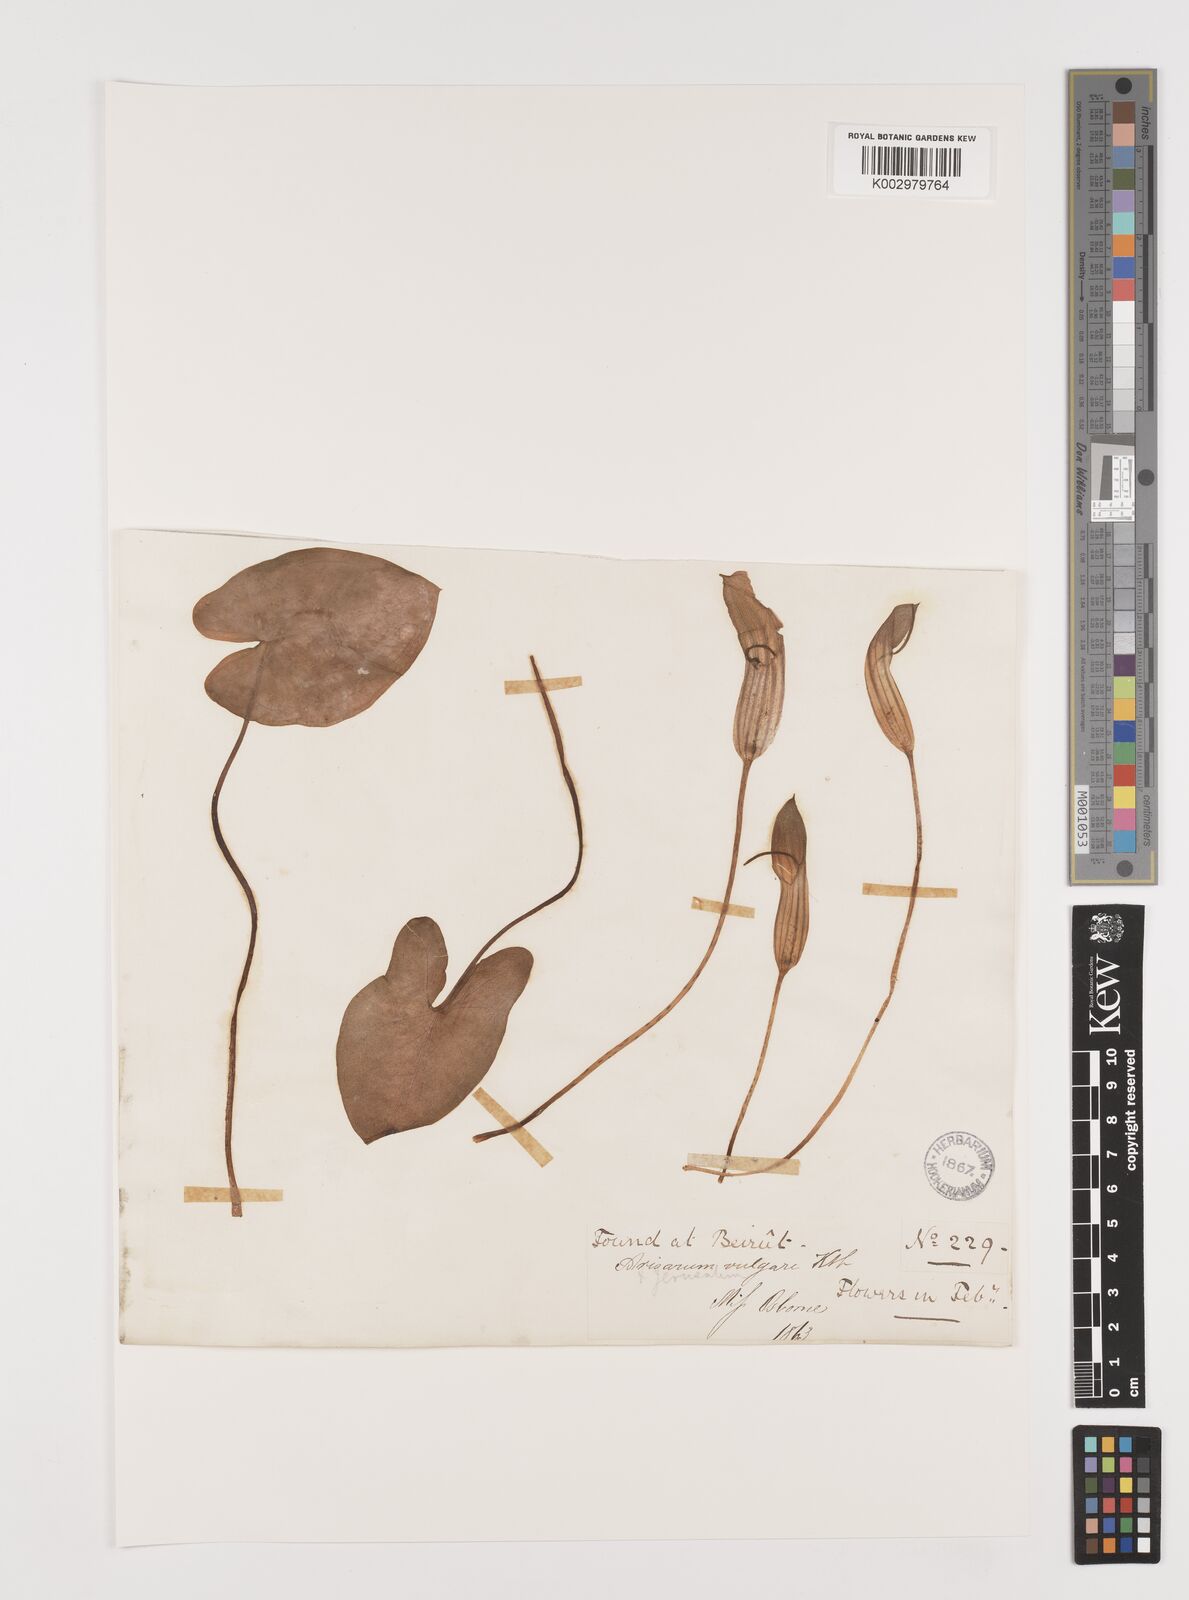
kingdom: Plantae
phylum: Tracheophyta
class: Liliopsida
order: Alismatales
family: Araceae
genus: Arisarum
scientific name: Arisarum vulgare
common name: Common arisarum
